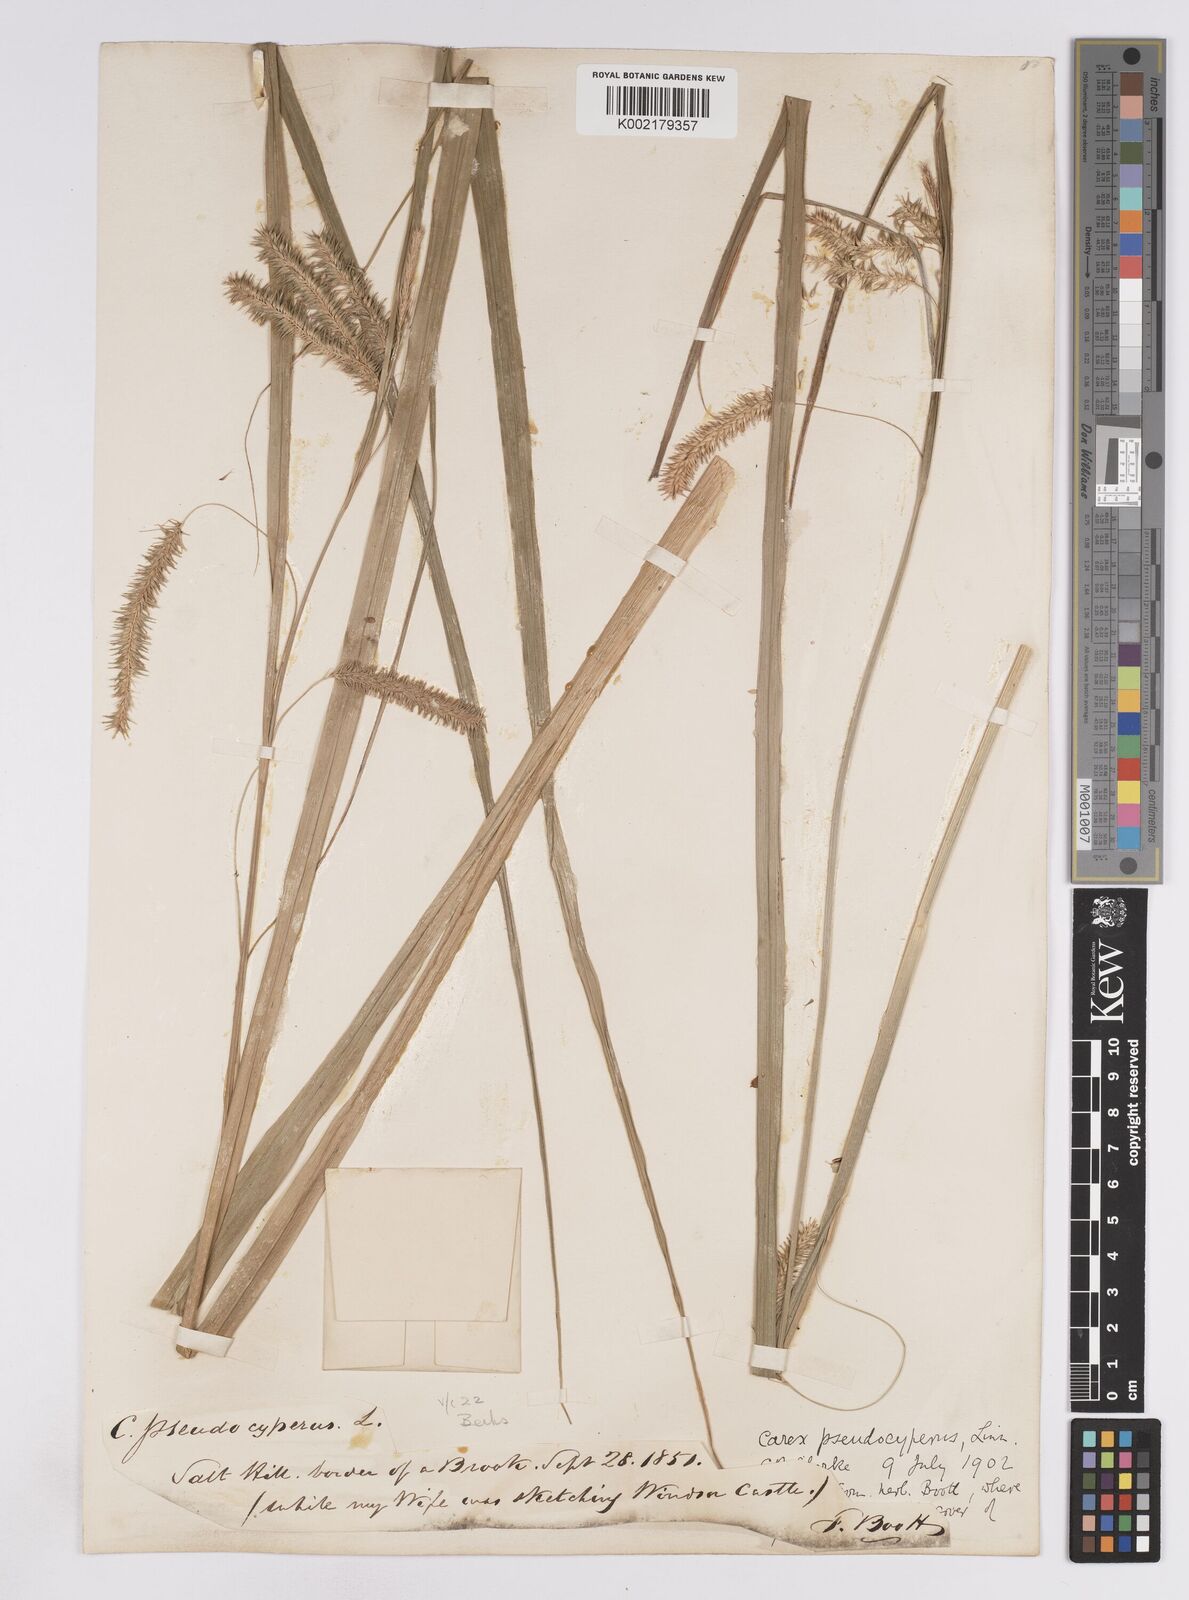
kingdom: Plantae
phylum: Tracheophyta
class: Liliopsida
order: Poales
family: Cyperaceae
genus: Carex
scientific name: Carex pseudocyperus
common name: Cyperus sedge
